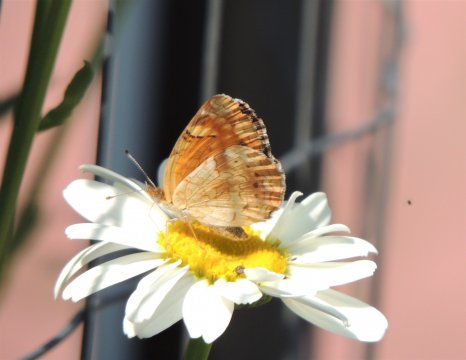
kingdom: Animalia
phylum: Arthropoda
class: Insecta
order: Lepidoptera
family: Nymphalidae
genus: Phyciodes
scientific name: Phyciodes tharos
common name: Field Crescent
